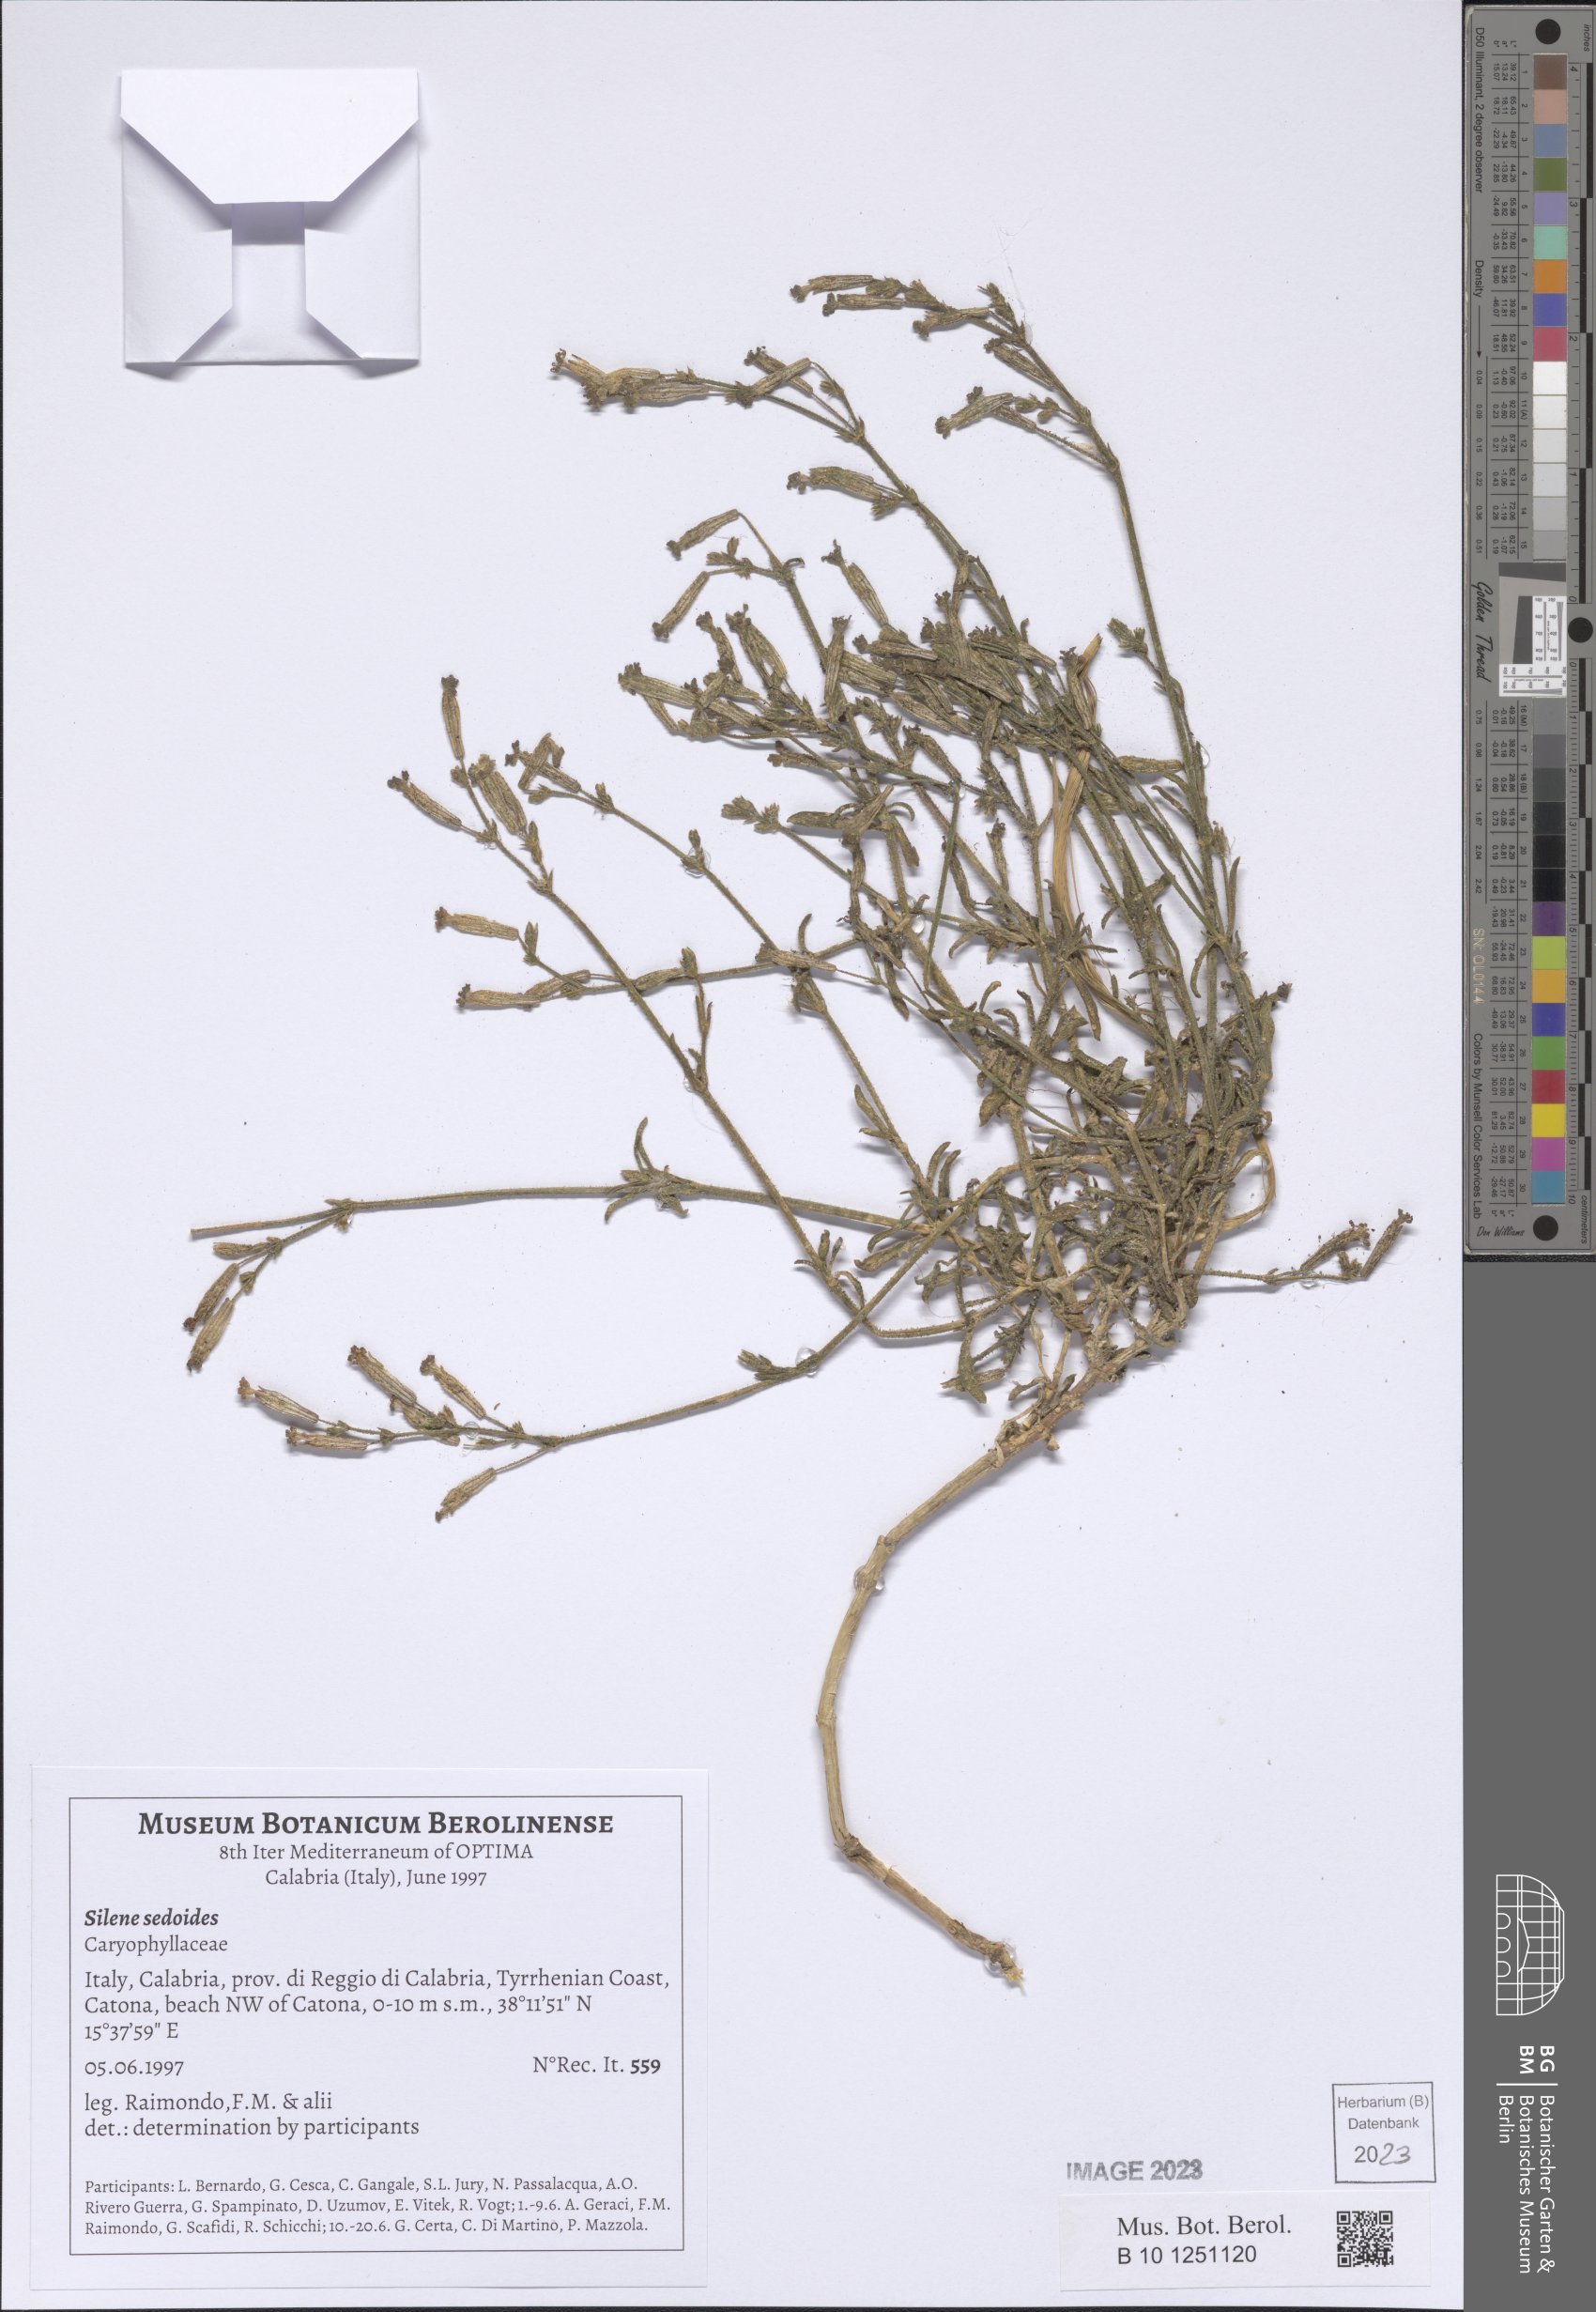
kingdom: Plantae
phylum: Tracheophyta
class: Magnoliopsida
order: Caryophyllales
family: Caryophyllaceae
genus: Silene
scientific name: Silene sedoides
